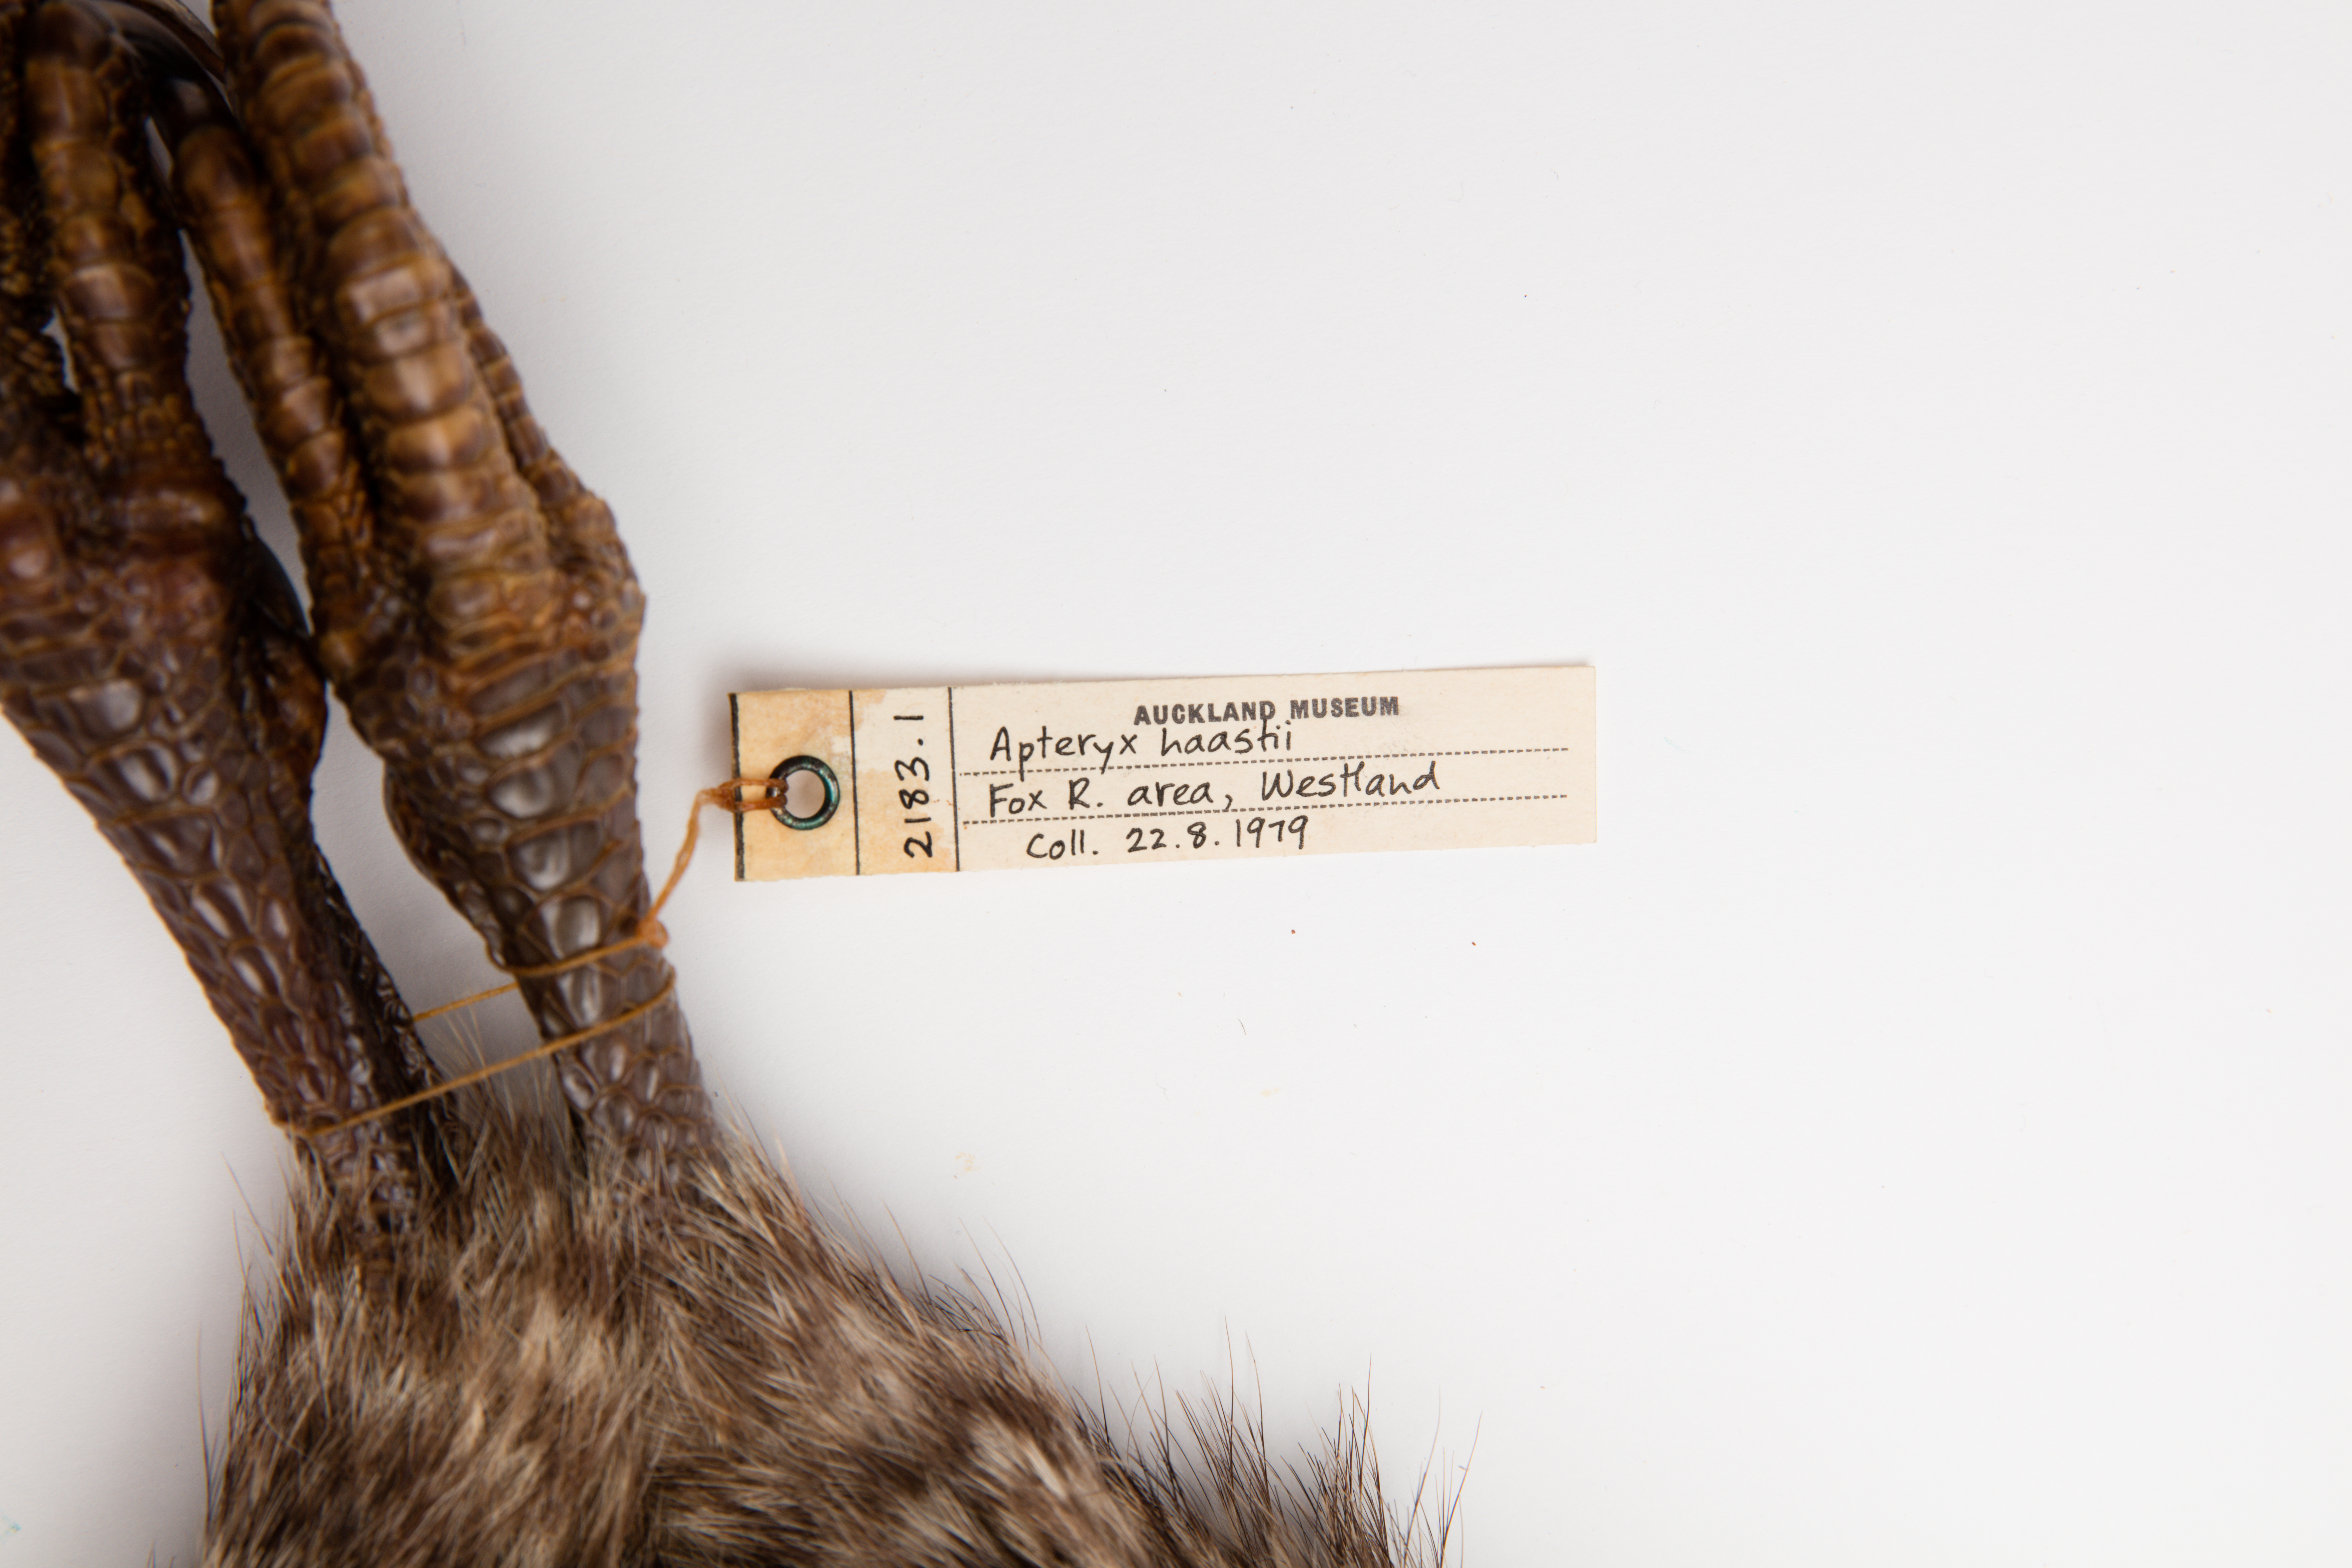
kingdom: Animalia
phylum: Chordata
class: Aves
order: Apterygiformes
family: Apterygidae
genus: Apteryx
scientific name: Apteryx
